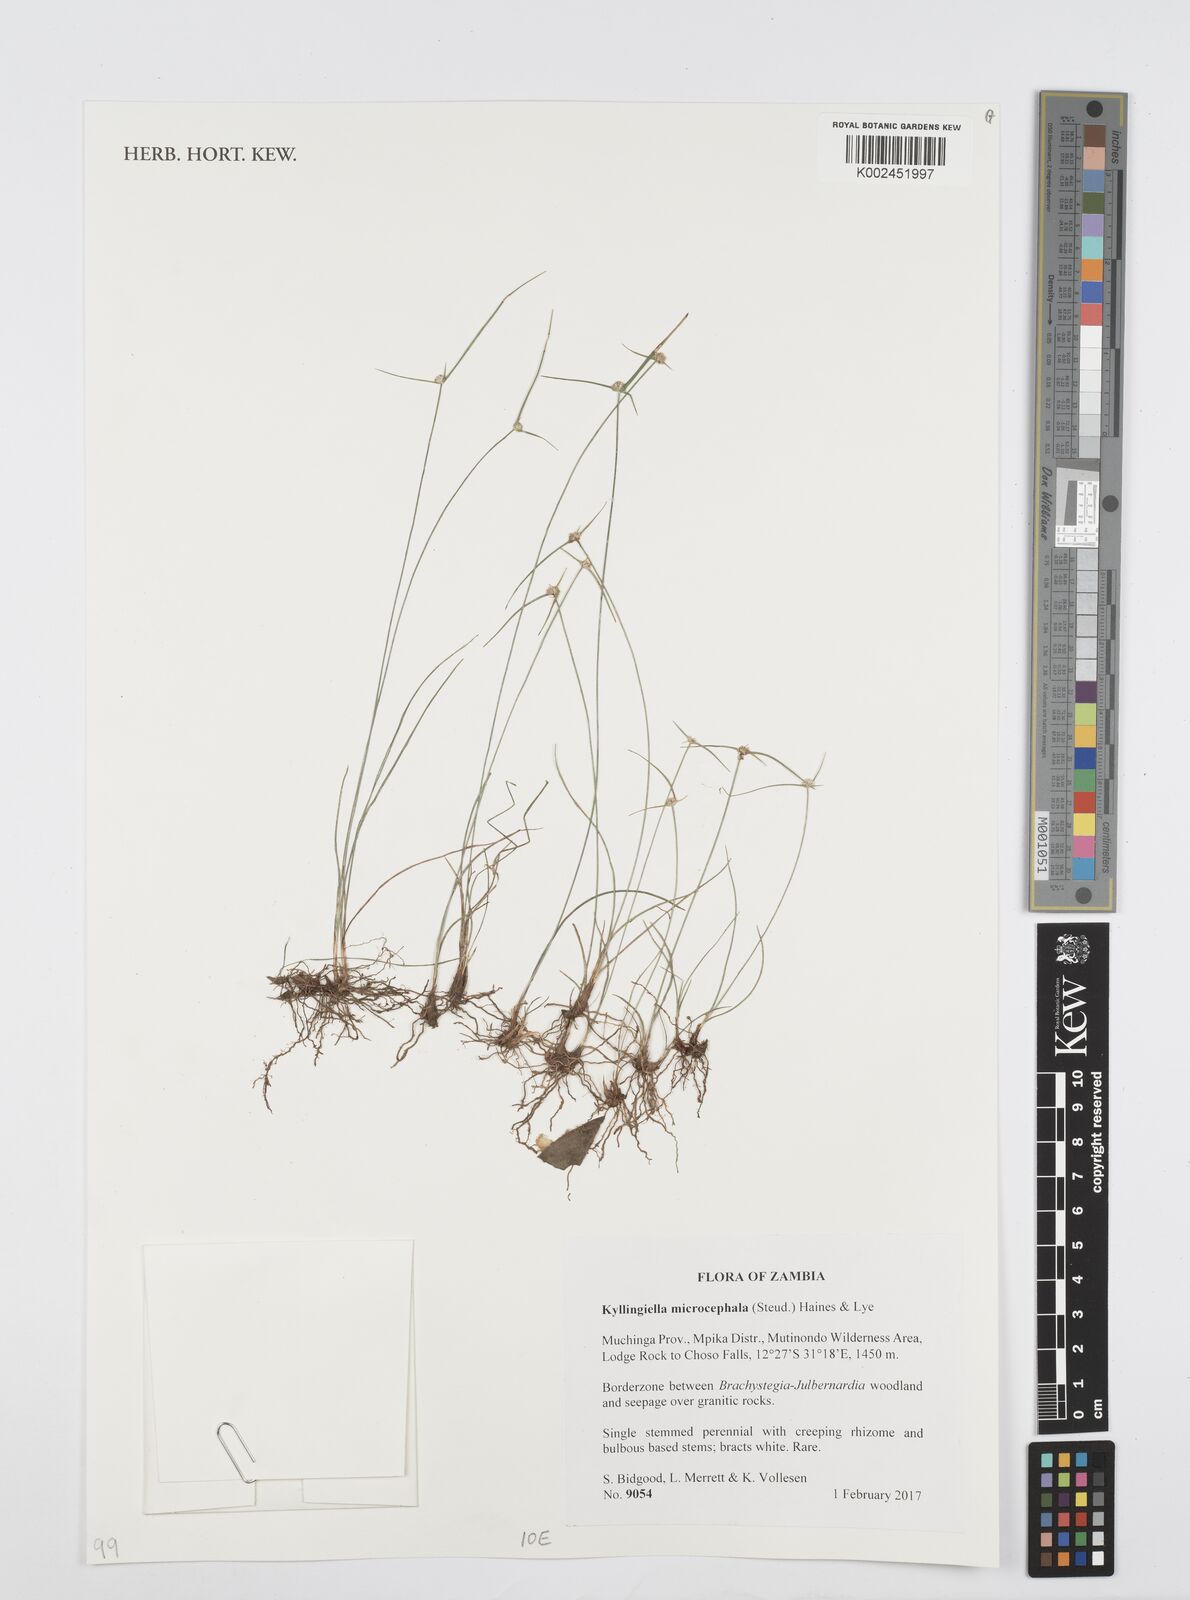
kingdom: Plantae
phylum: Tracheophyta
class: Liliopsida
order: Poales
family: Cyperaceae
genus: Cyperus
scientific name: Cyperus microcephalus
